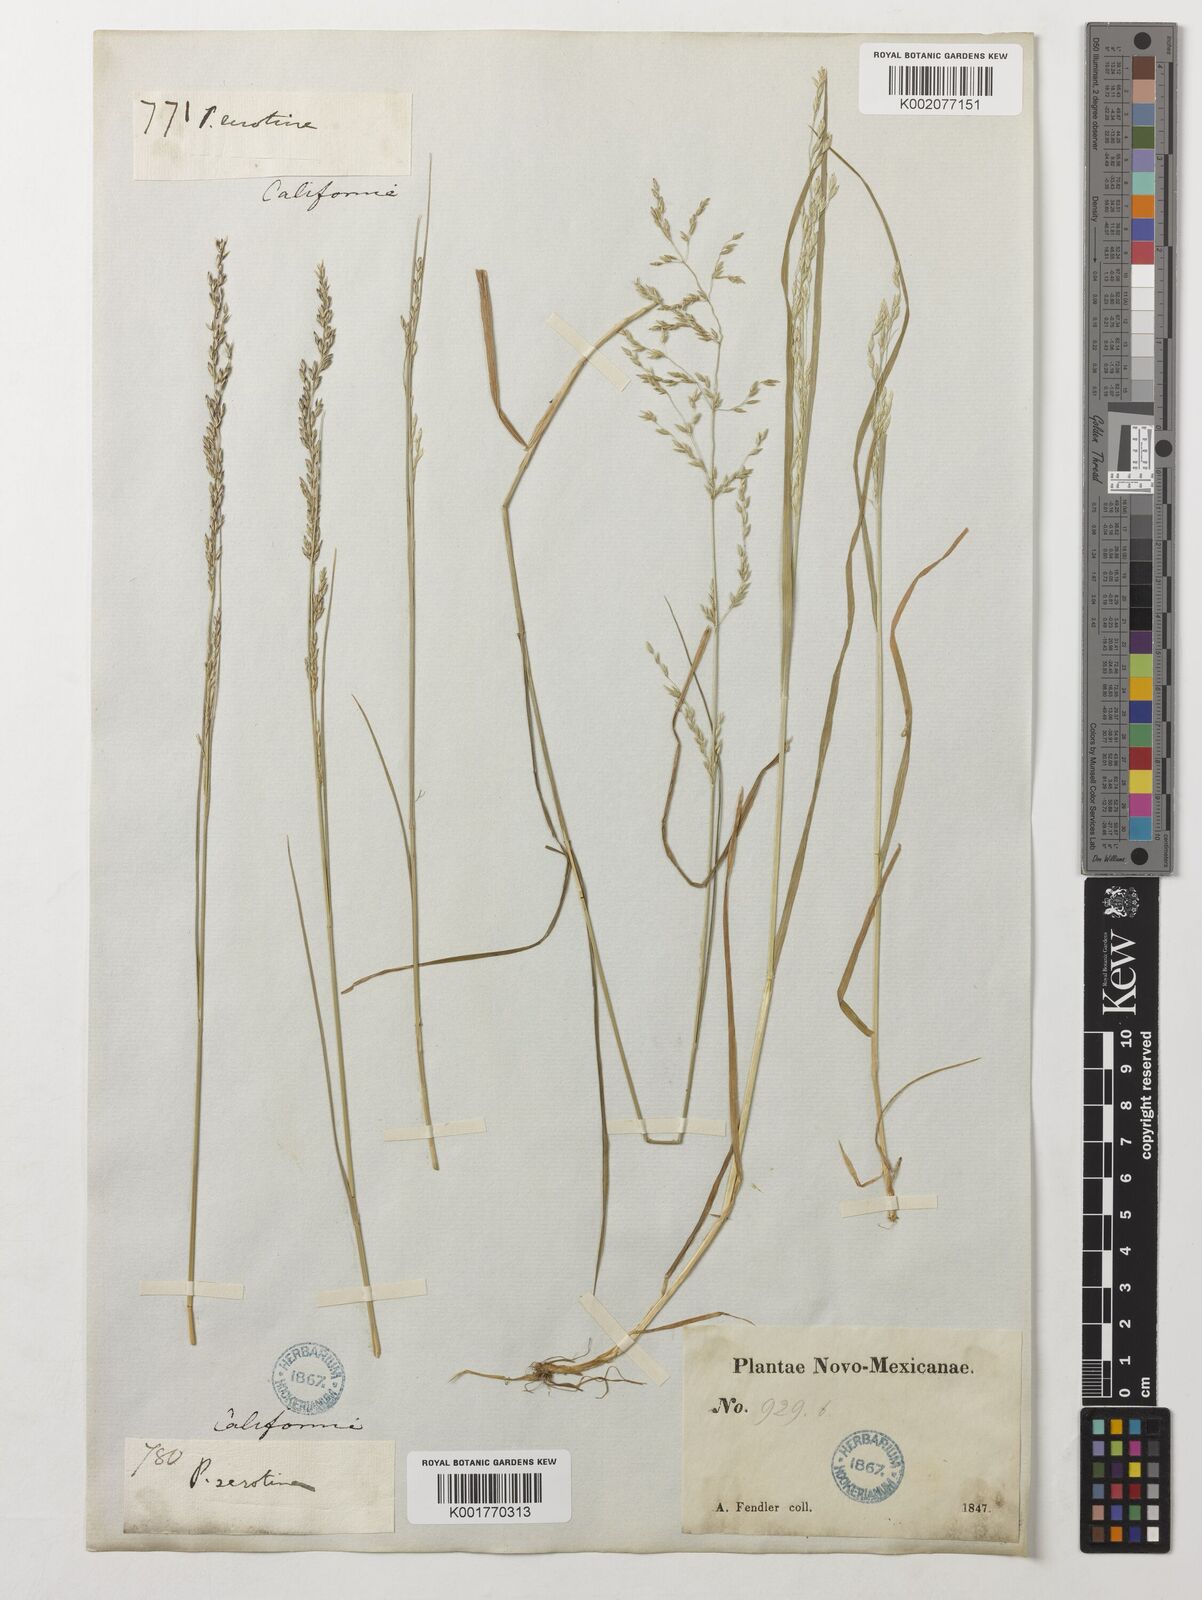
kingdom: Plantae
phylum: Tracheophyta
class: Liliopsida
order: Poales
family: Poaceae
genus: Poa
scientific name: Poa palustris
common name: Swamp meadow-grass
